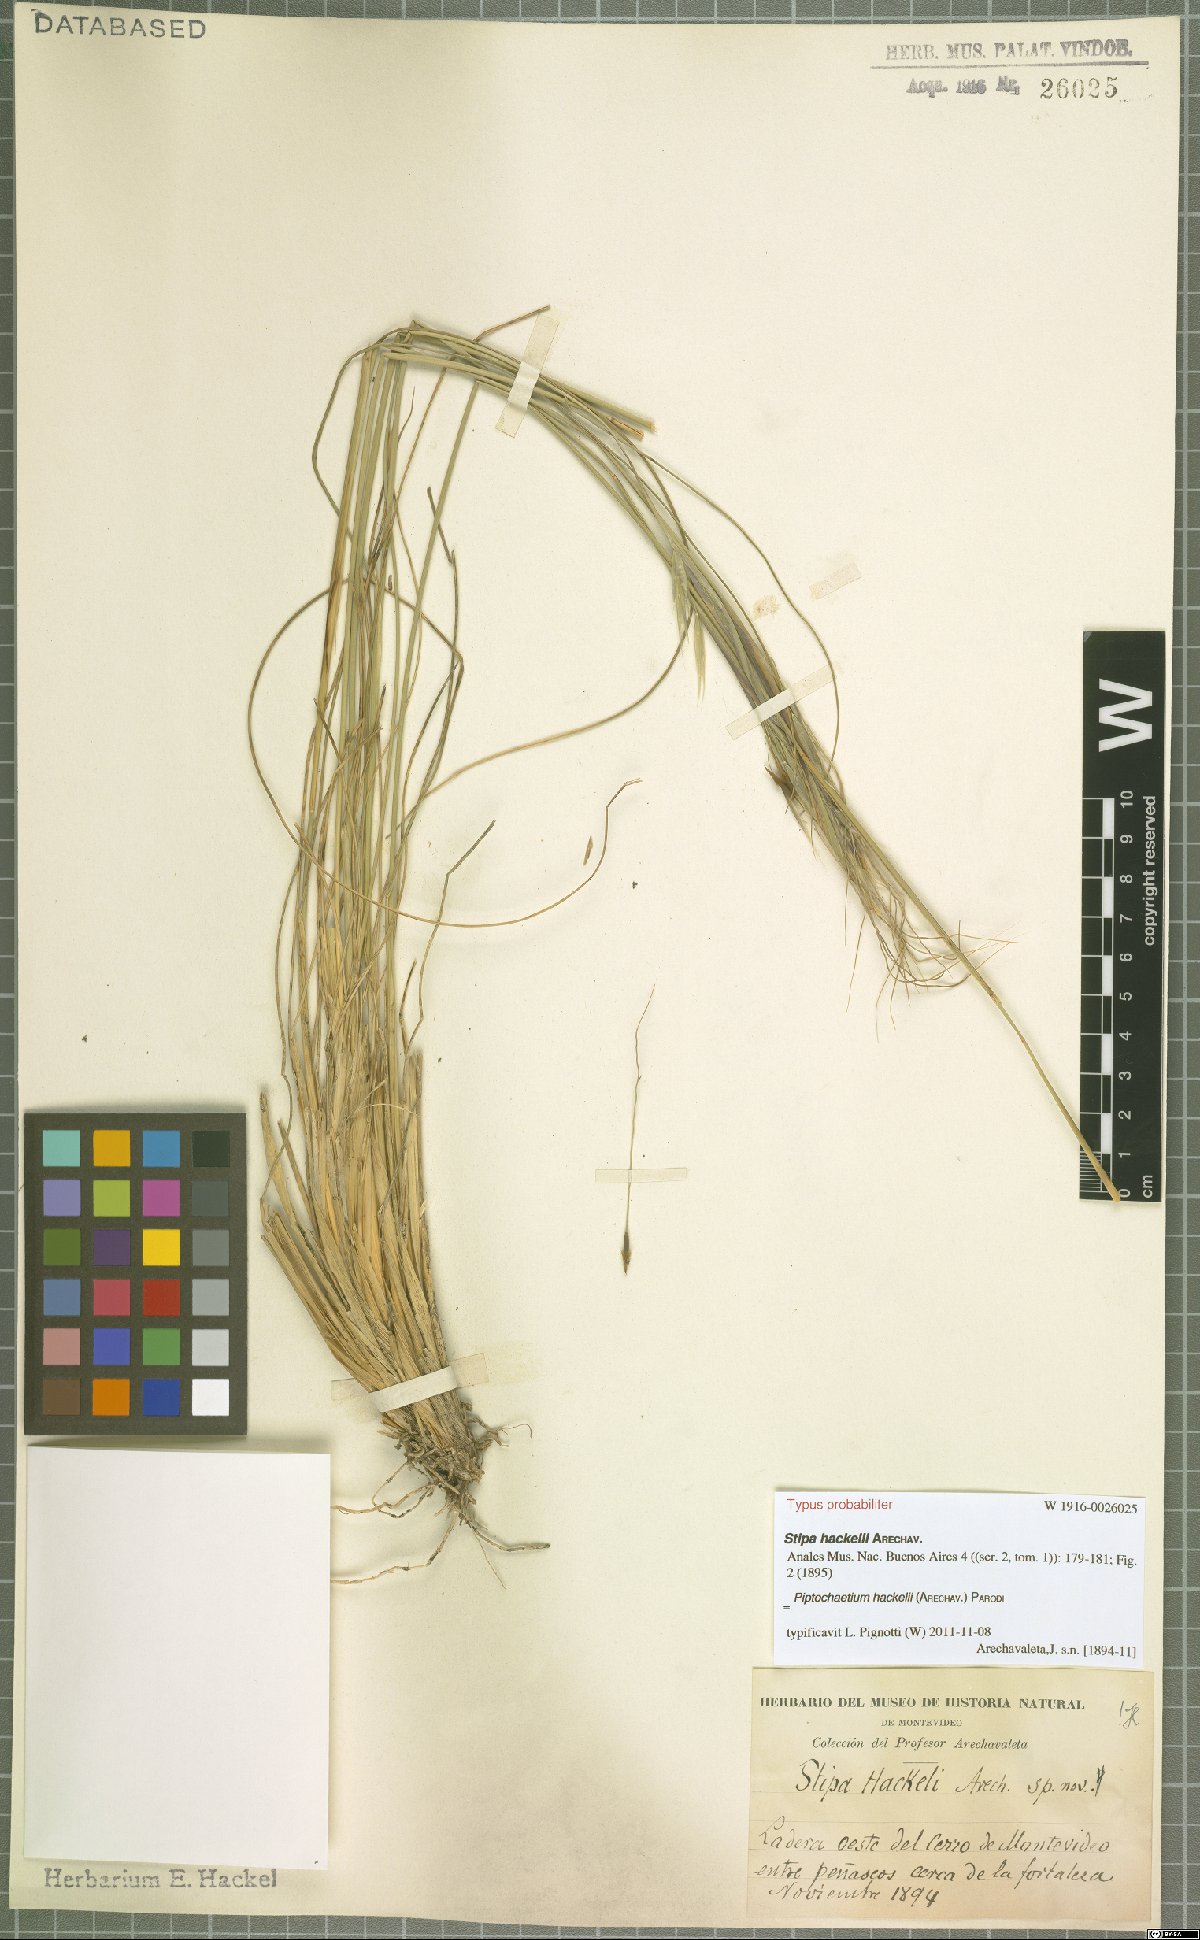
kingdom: Plantae
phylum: Tracheophyta
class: Liliopsida
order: Poales
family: Poaceae
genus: Piptochaetium
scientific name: Piptochaetium hackelii
